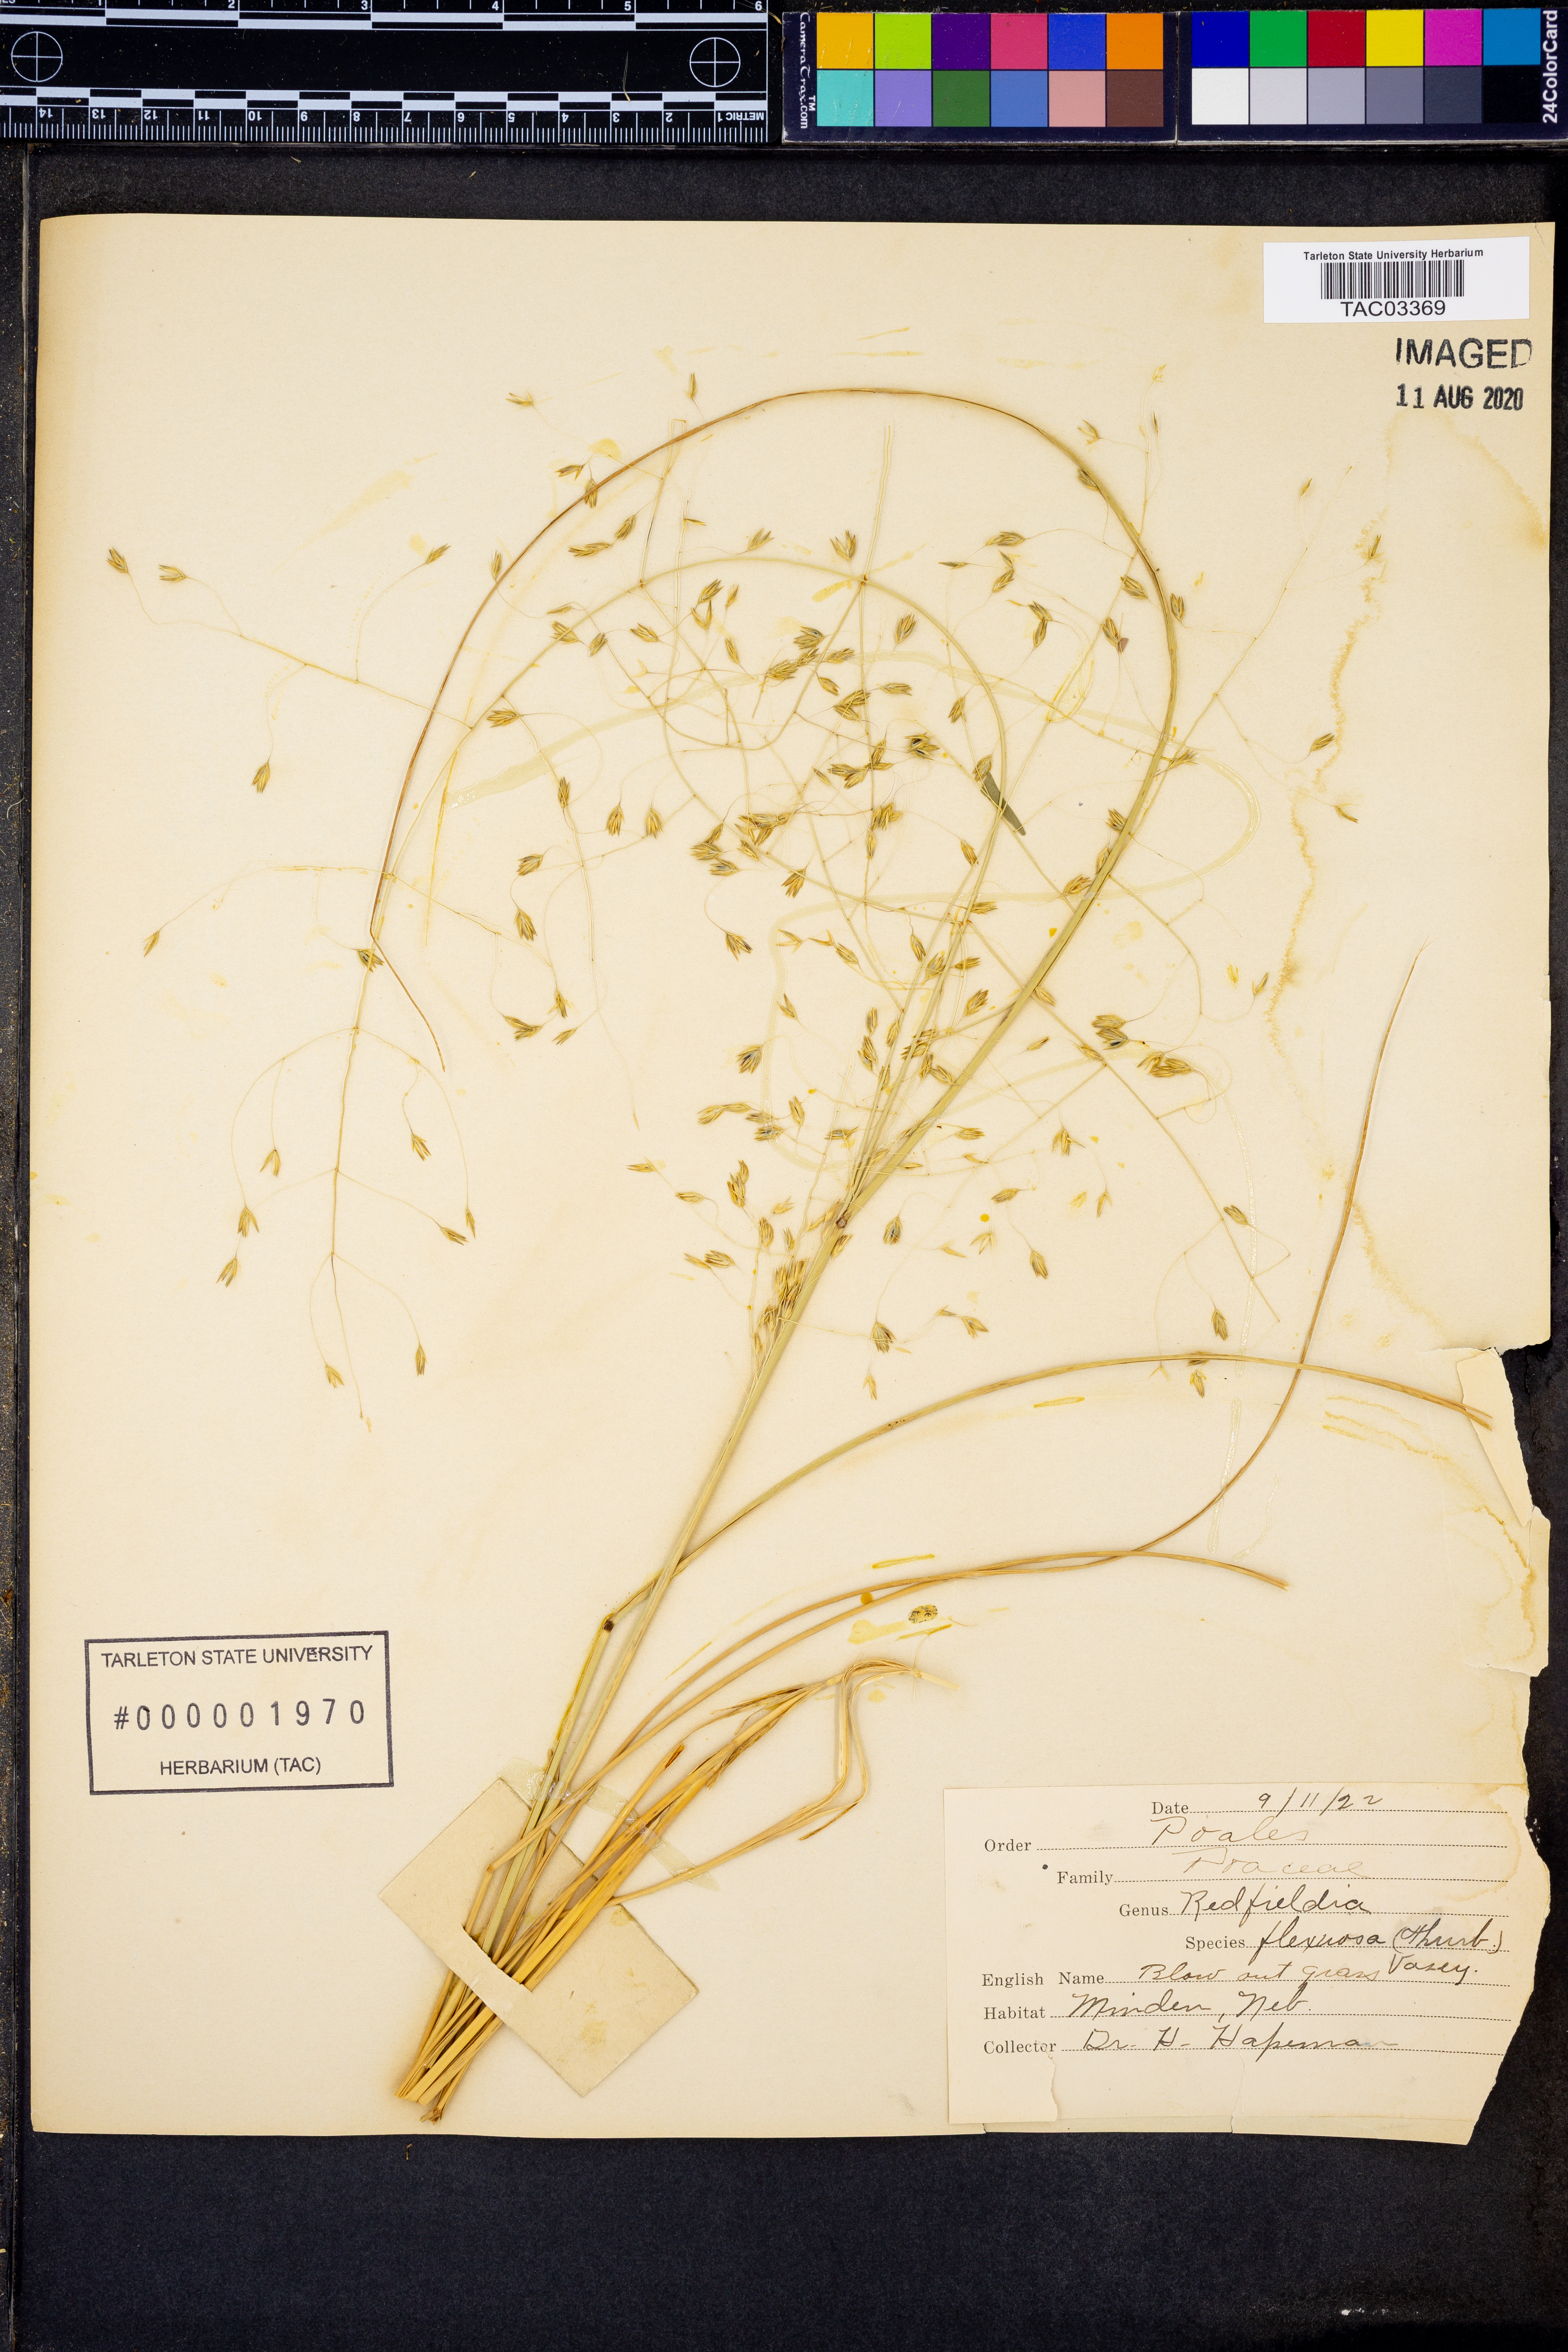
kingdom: Plantae
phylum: Tracheophyta
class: Liliopsida
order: Poales
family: Poaceae
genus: Muhlenbergia
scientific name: Muhlenbergia multiflora
